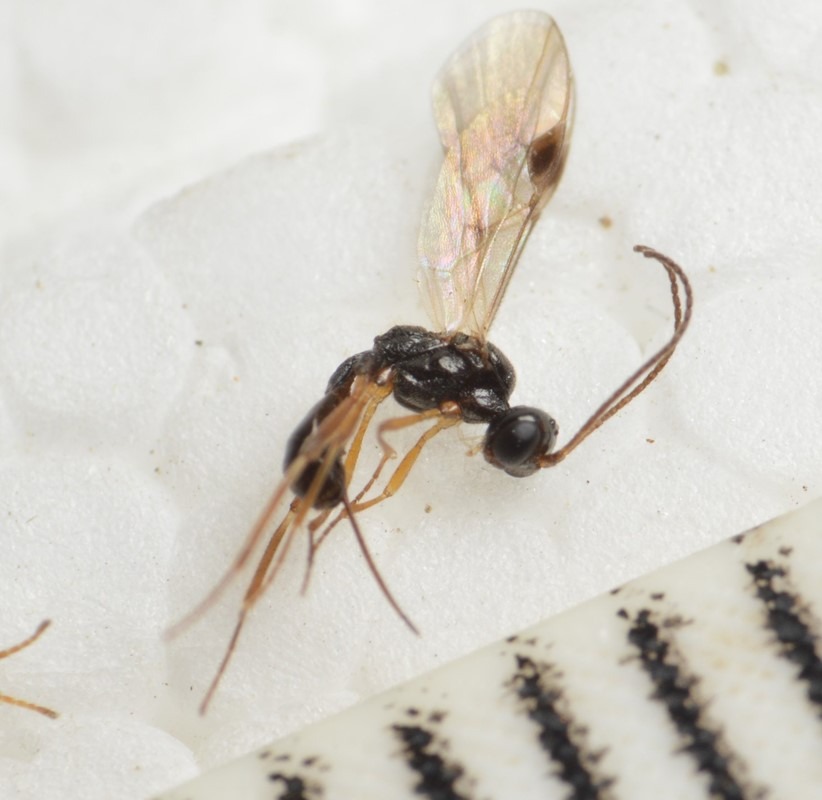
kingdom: Animalia
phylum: Arthropoda
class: Insecta
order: Hymenoptera
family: Braconidae
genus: Meteorus
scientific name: Meteorus vexator
